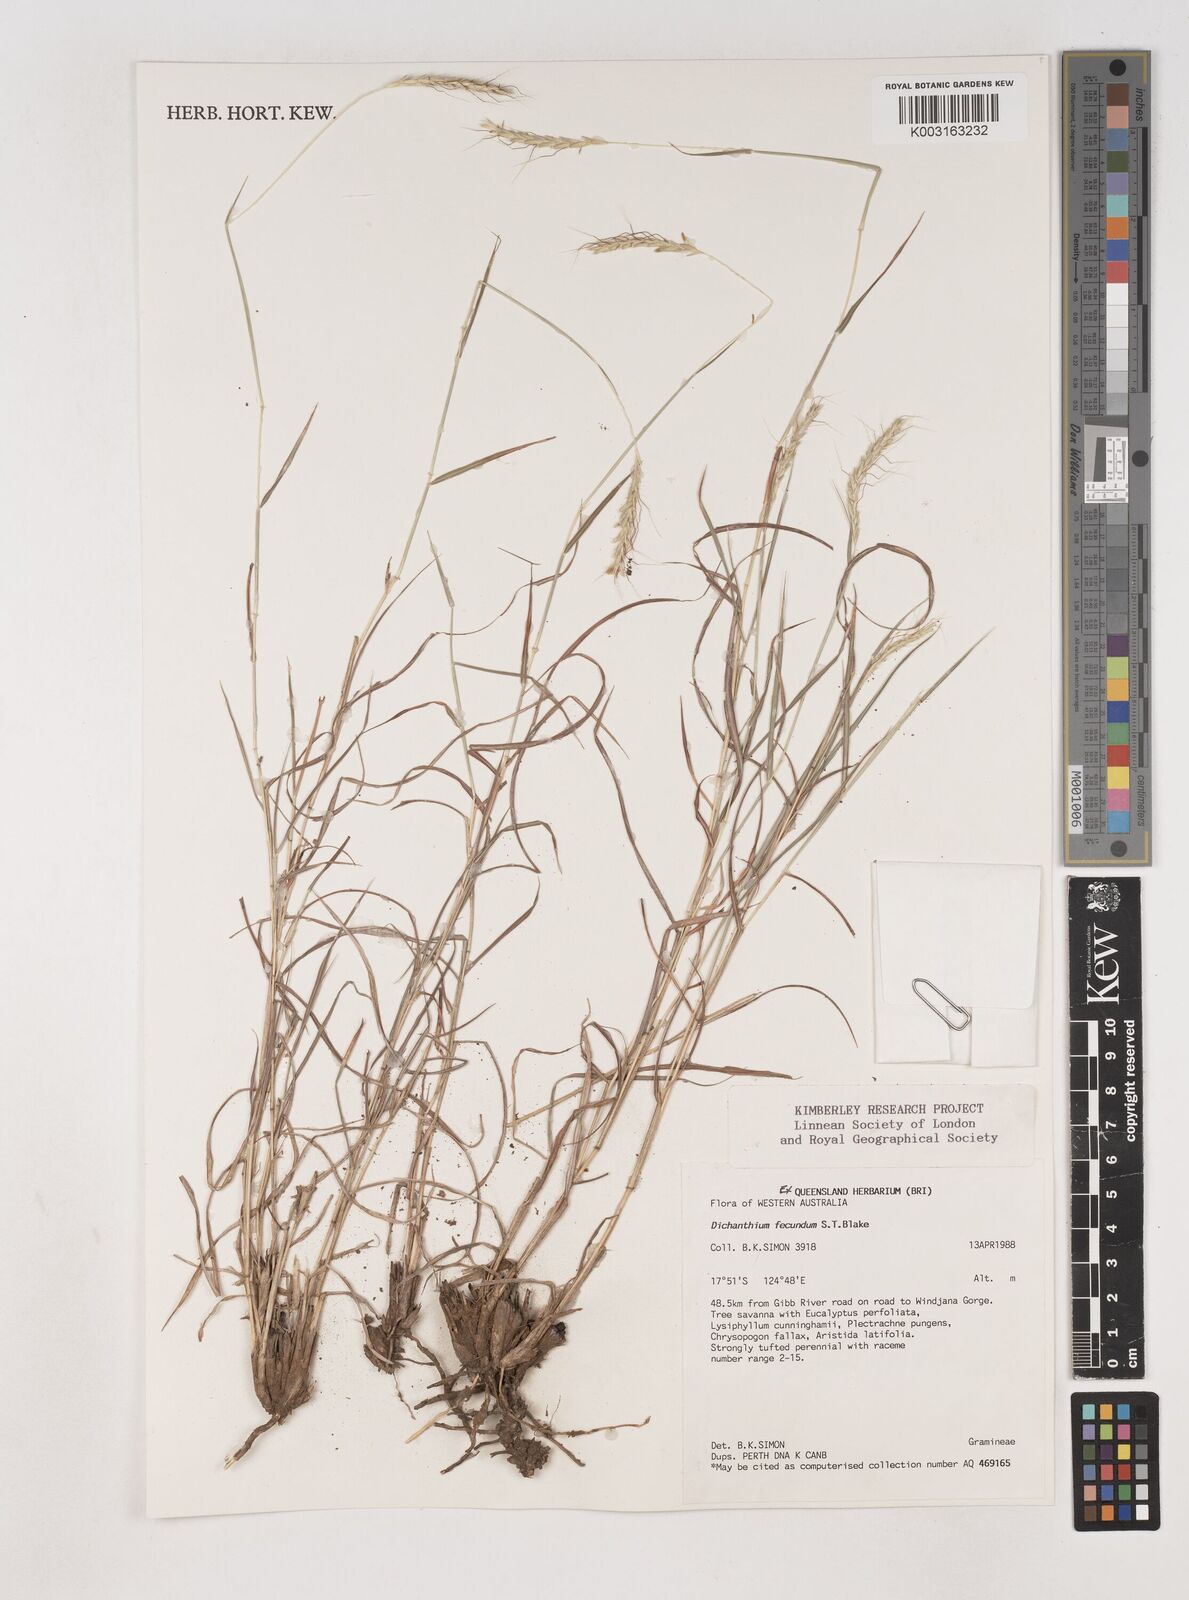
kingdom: Plantae
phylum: Tracheophyta
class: Liliopsida
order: Poales
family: Poaceae
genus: Dichanthium
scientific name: Dichanthium fecundum
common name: Bundle-bundle
